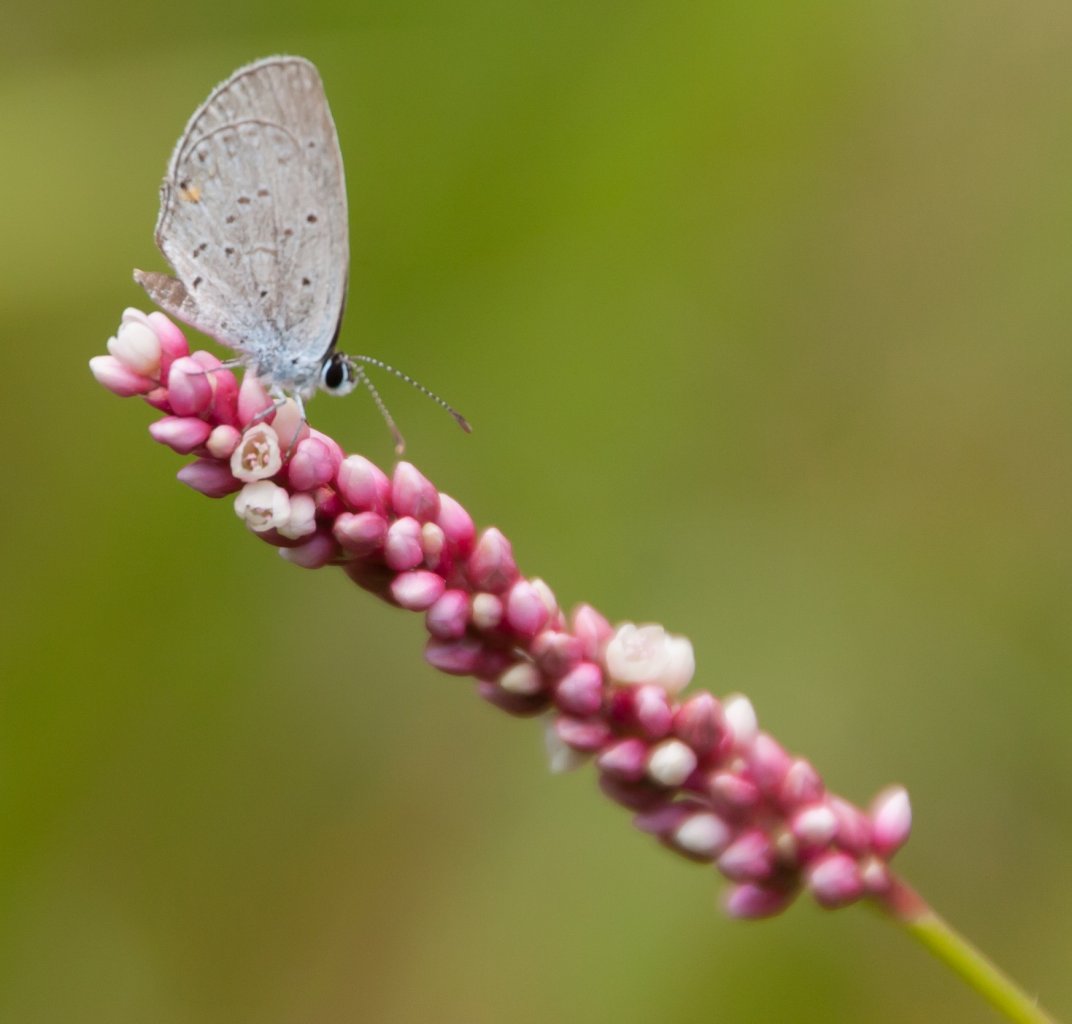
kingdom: Animalia
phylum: Arthropoda
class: Insecta
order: Lepidoptera
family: Lycaenidae
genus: Elkalyce
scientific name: Elkalyce comyntas
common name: Eastern Tailed-Blue
